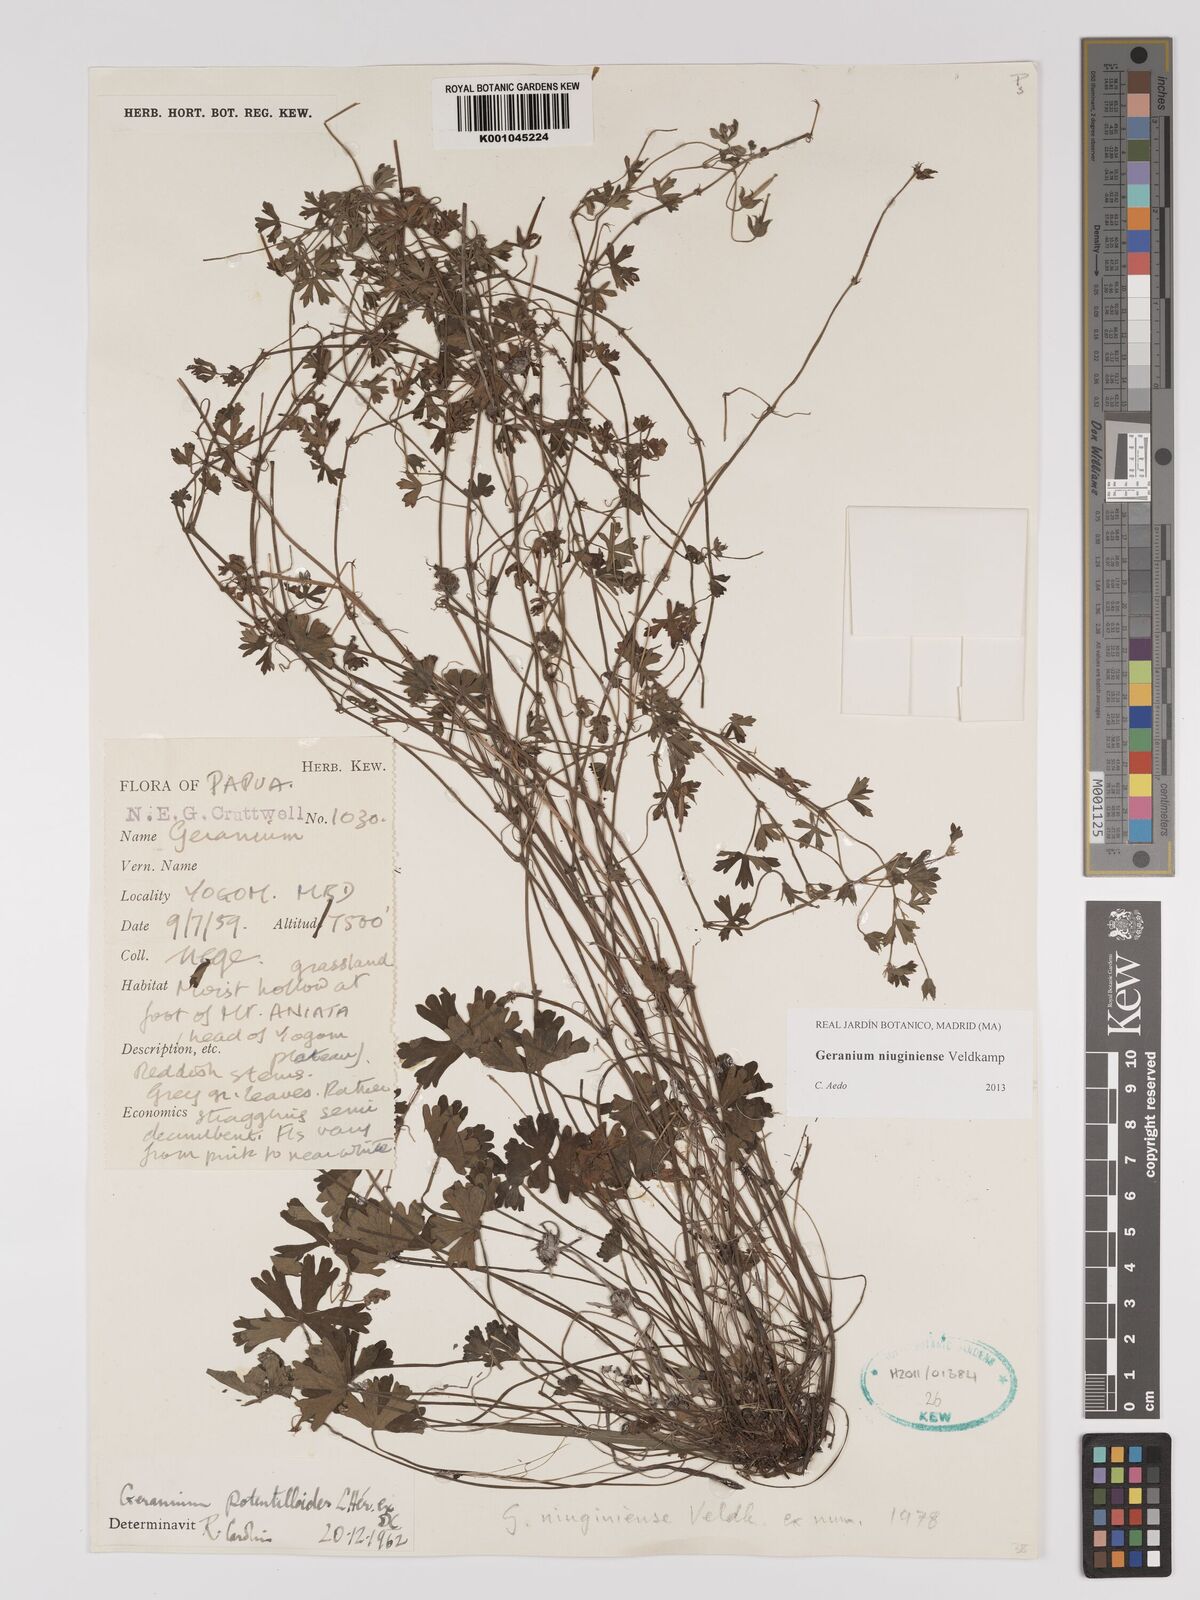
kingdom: Plantae
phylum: Tracheophyta
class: Magnoliopsida
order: Geraniales
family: Geraniaceae
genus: Geranium
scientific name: Geranium niuginiense
